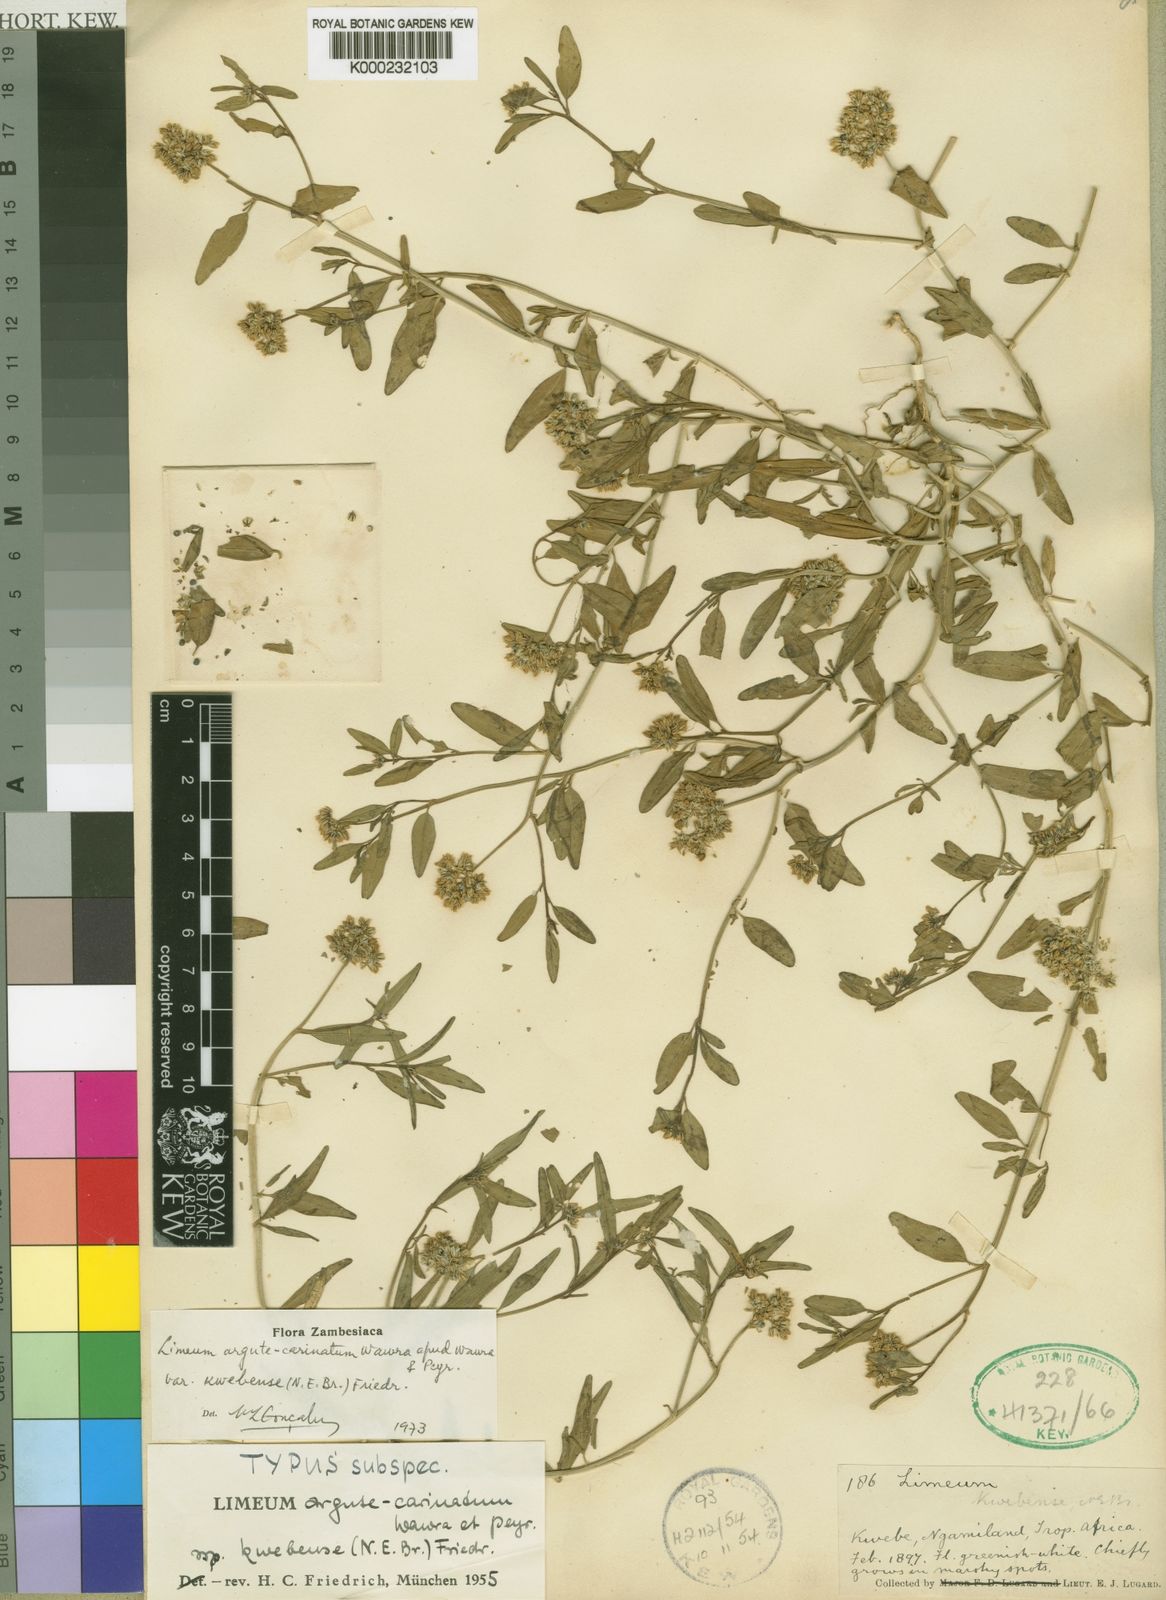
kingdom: Plantae
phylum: Tracheophyta
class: Magnoliopsida
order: Caryophyllales
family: Limeaceae
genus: Limeum
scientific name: Limeum argute-carinatum
